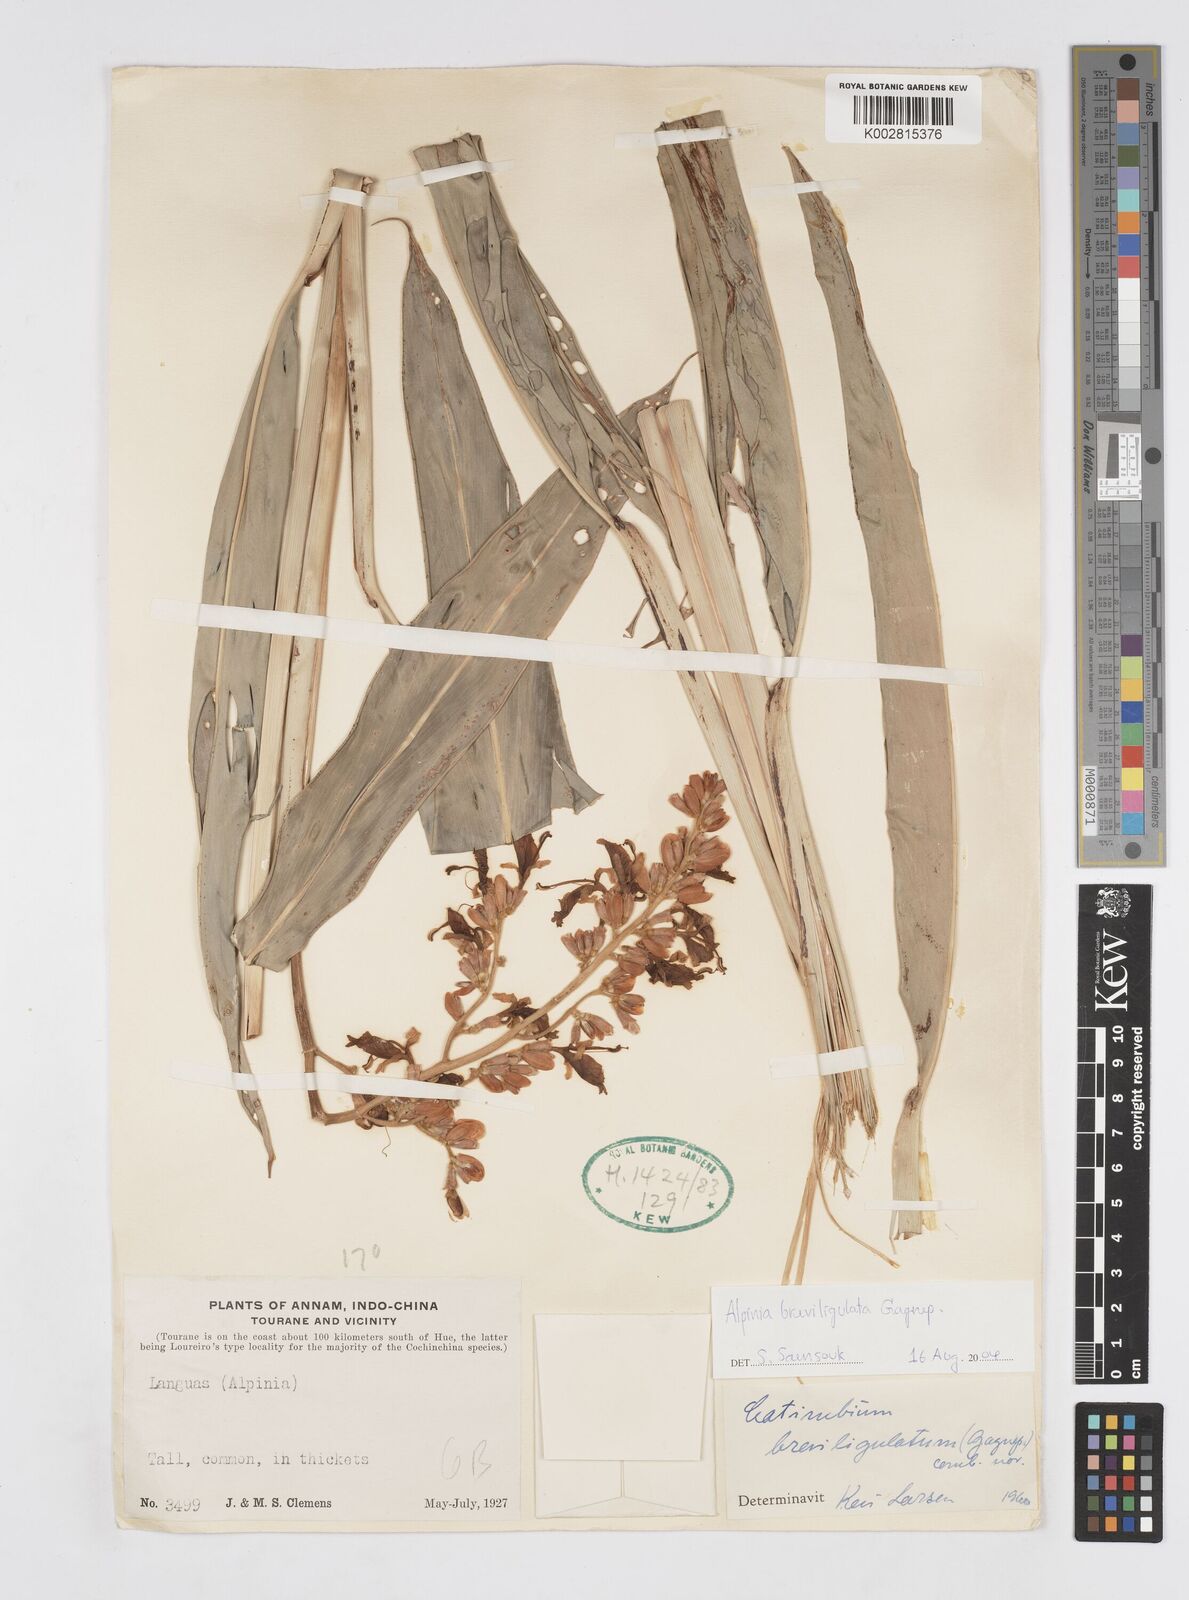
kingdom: Plantae
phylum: Tracheophyta
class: Liliopsida
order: Zingiberales
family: Zingiberaceae
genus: Alpinia
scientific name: Alpinia breviligulata
